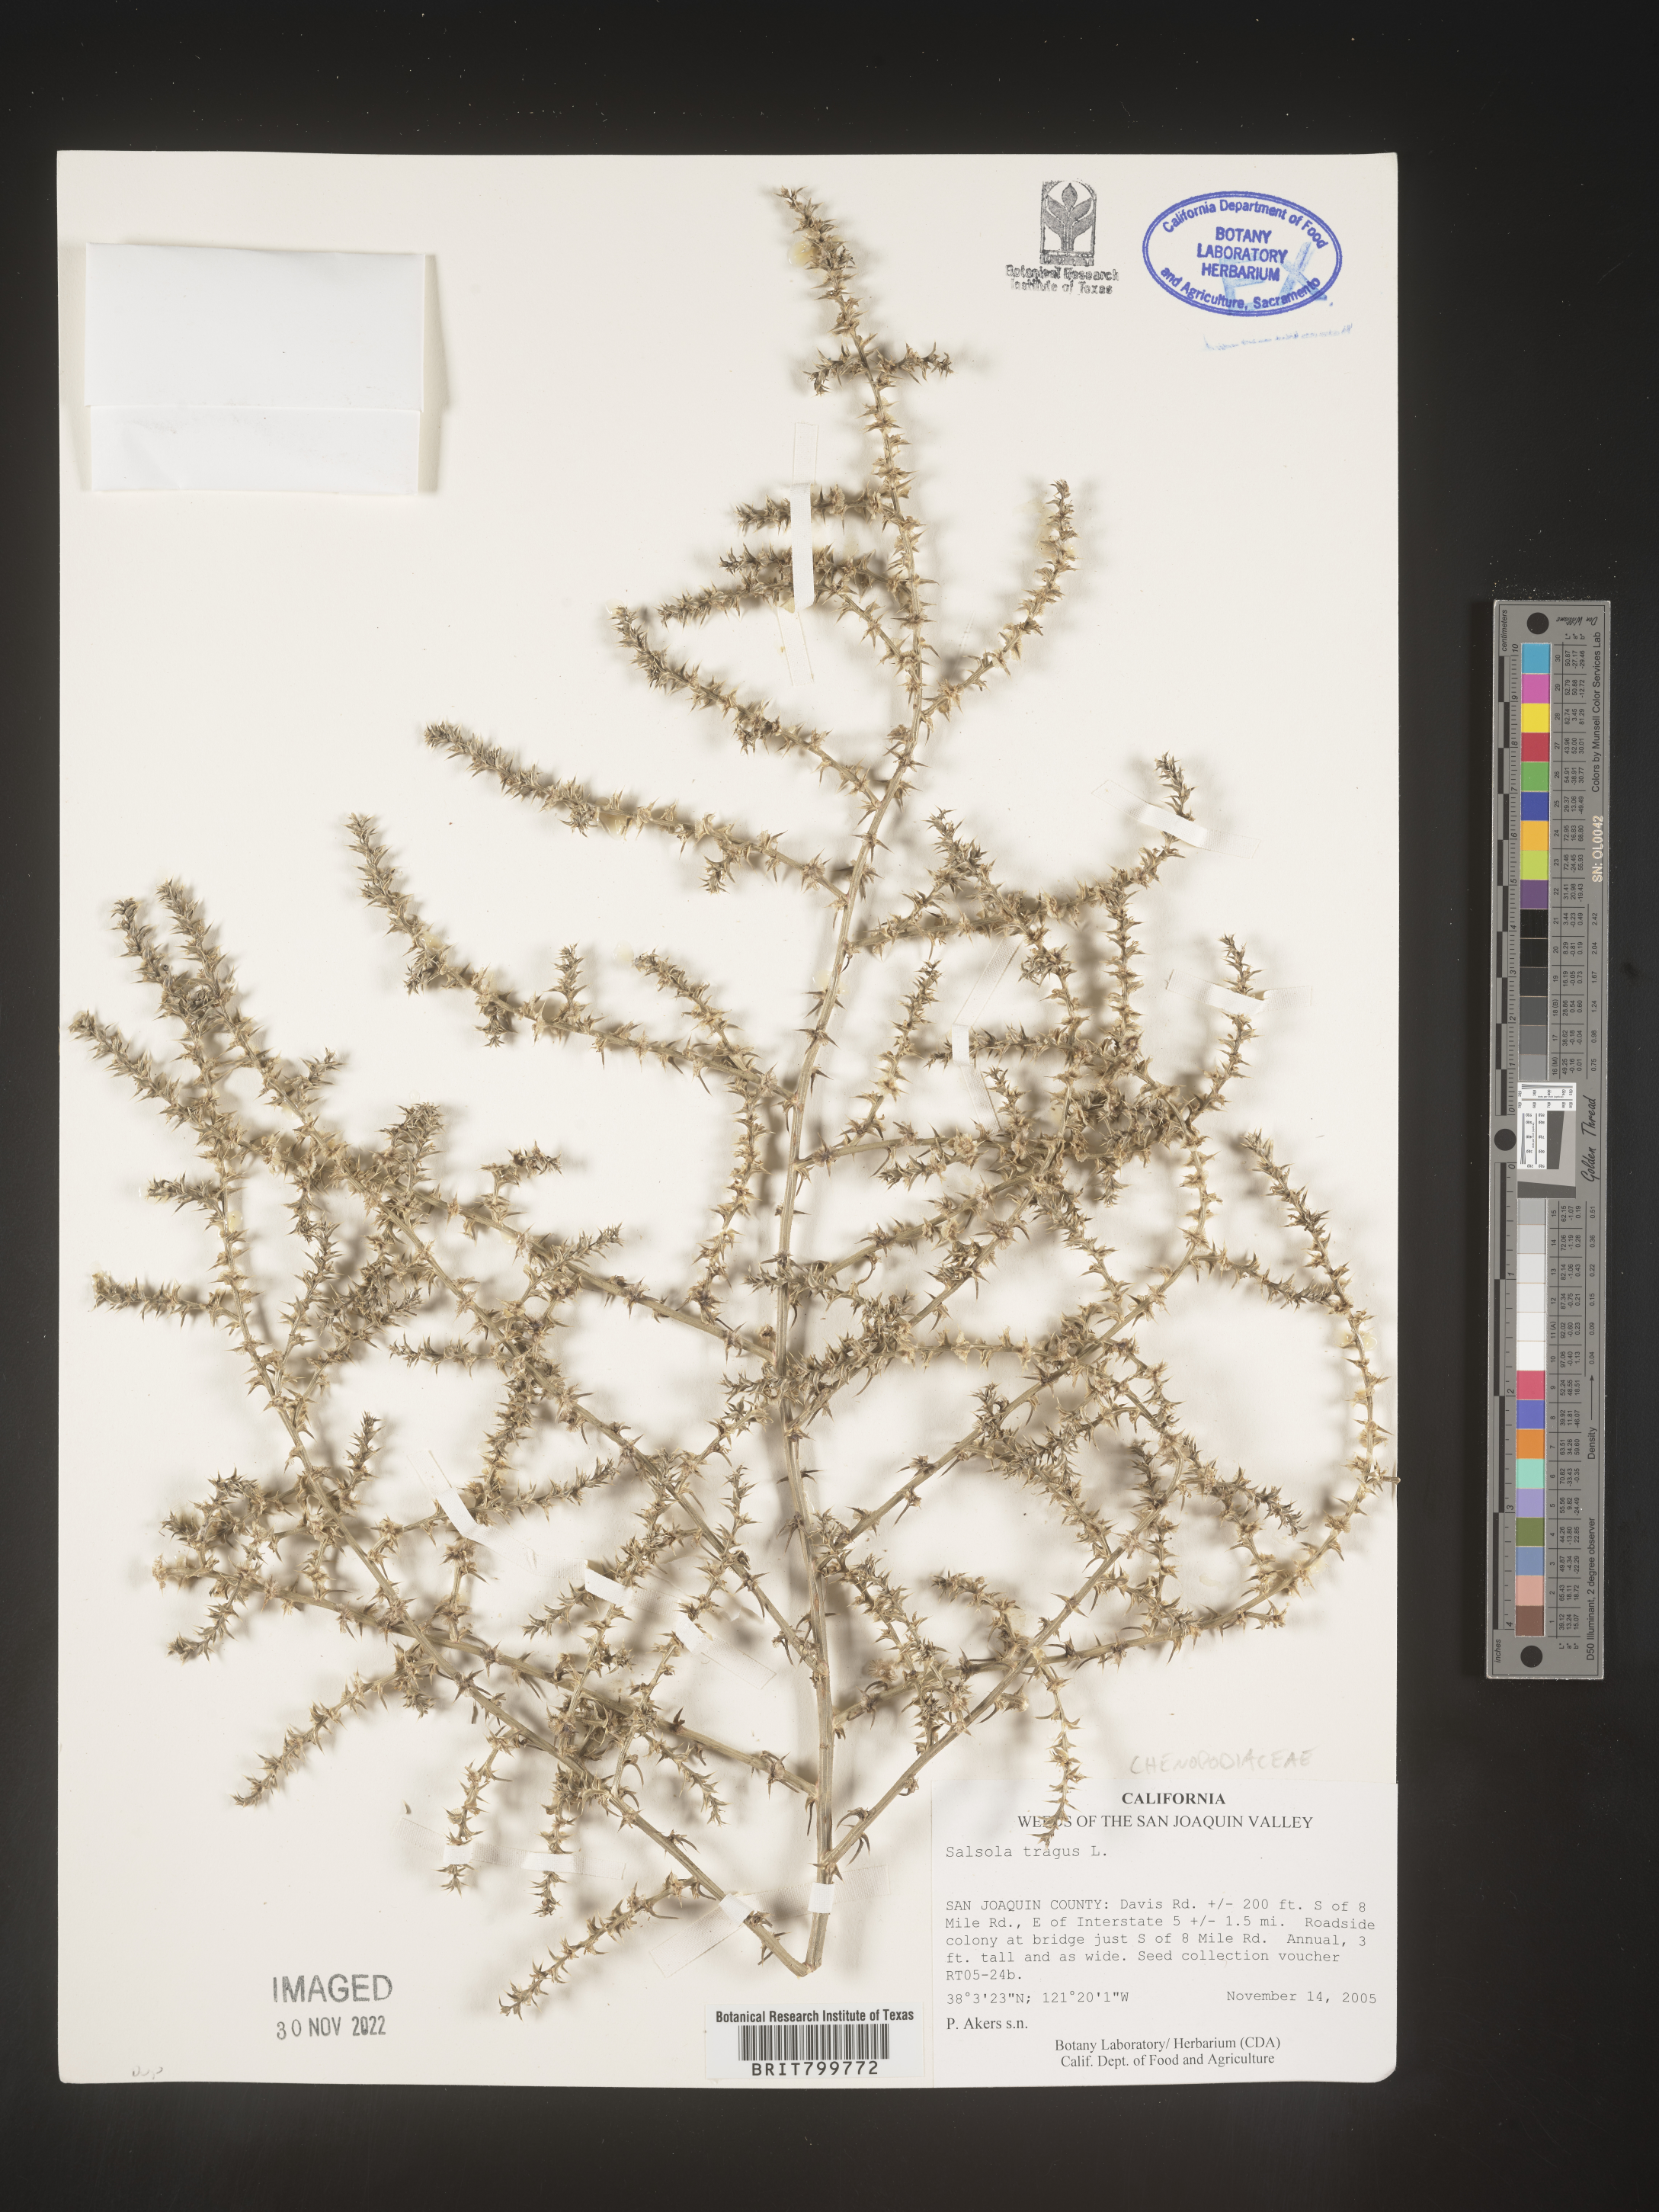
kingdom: Plantae
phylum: Tracheophyta
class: Magnoliopsida
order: Caryophyllales
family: Amaranthaceae
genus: Salsola
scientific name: Salsola tragus
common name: Prickly russian thistle
